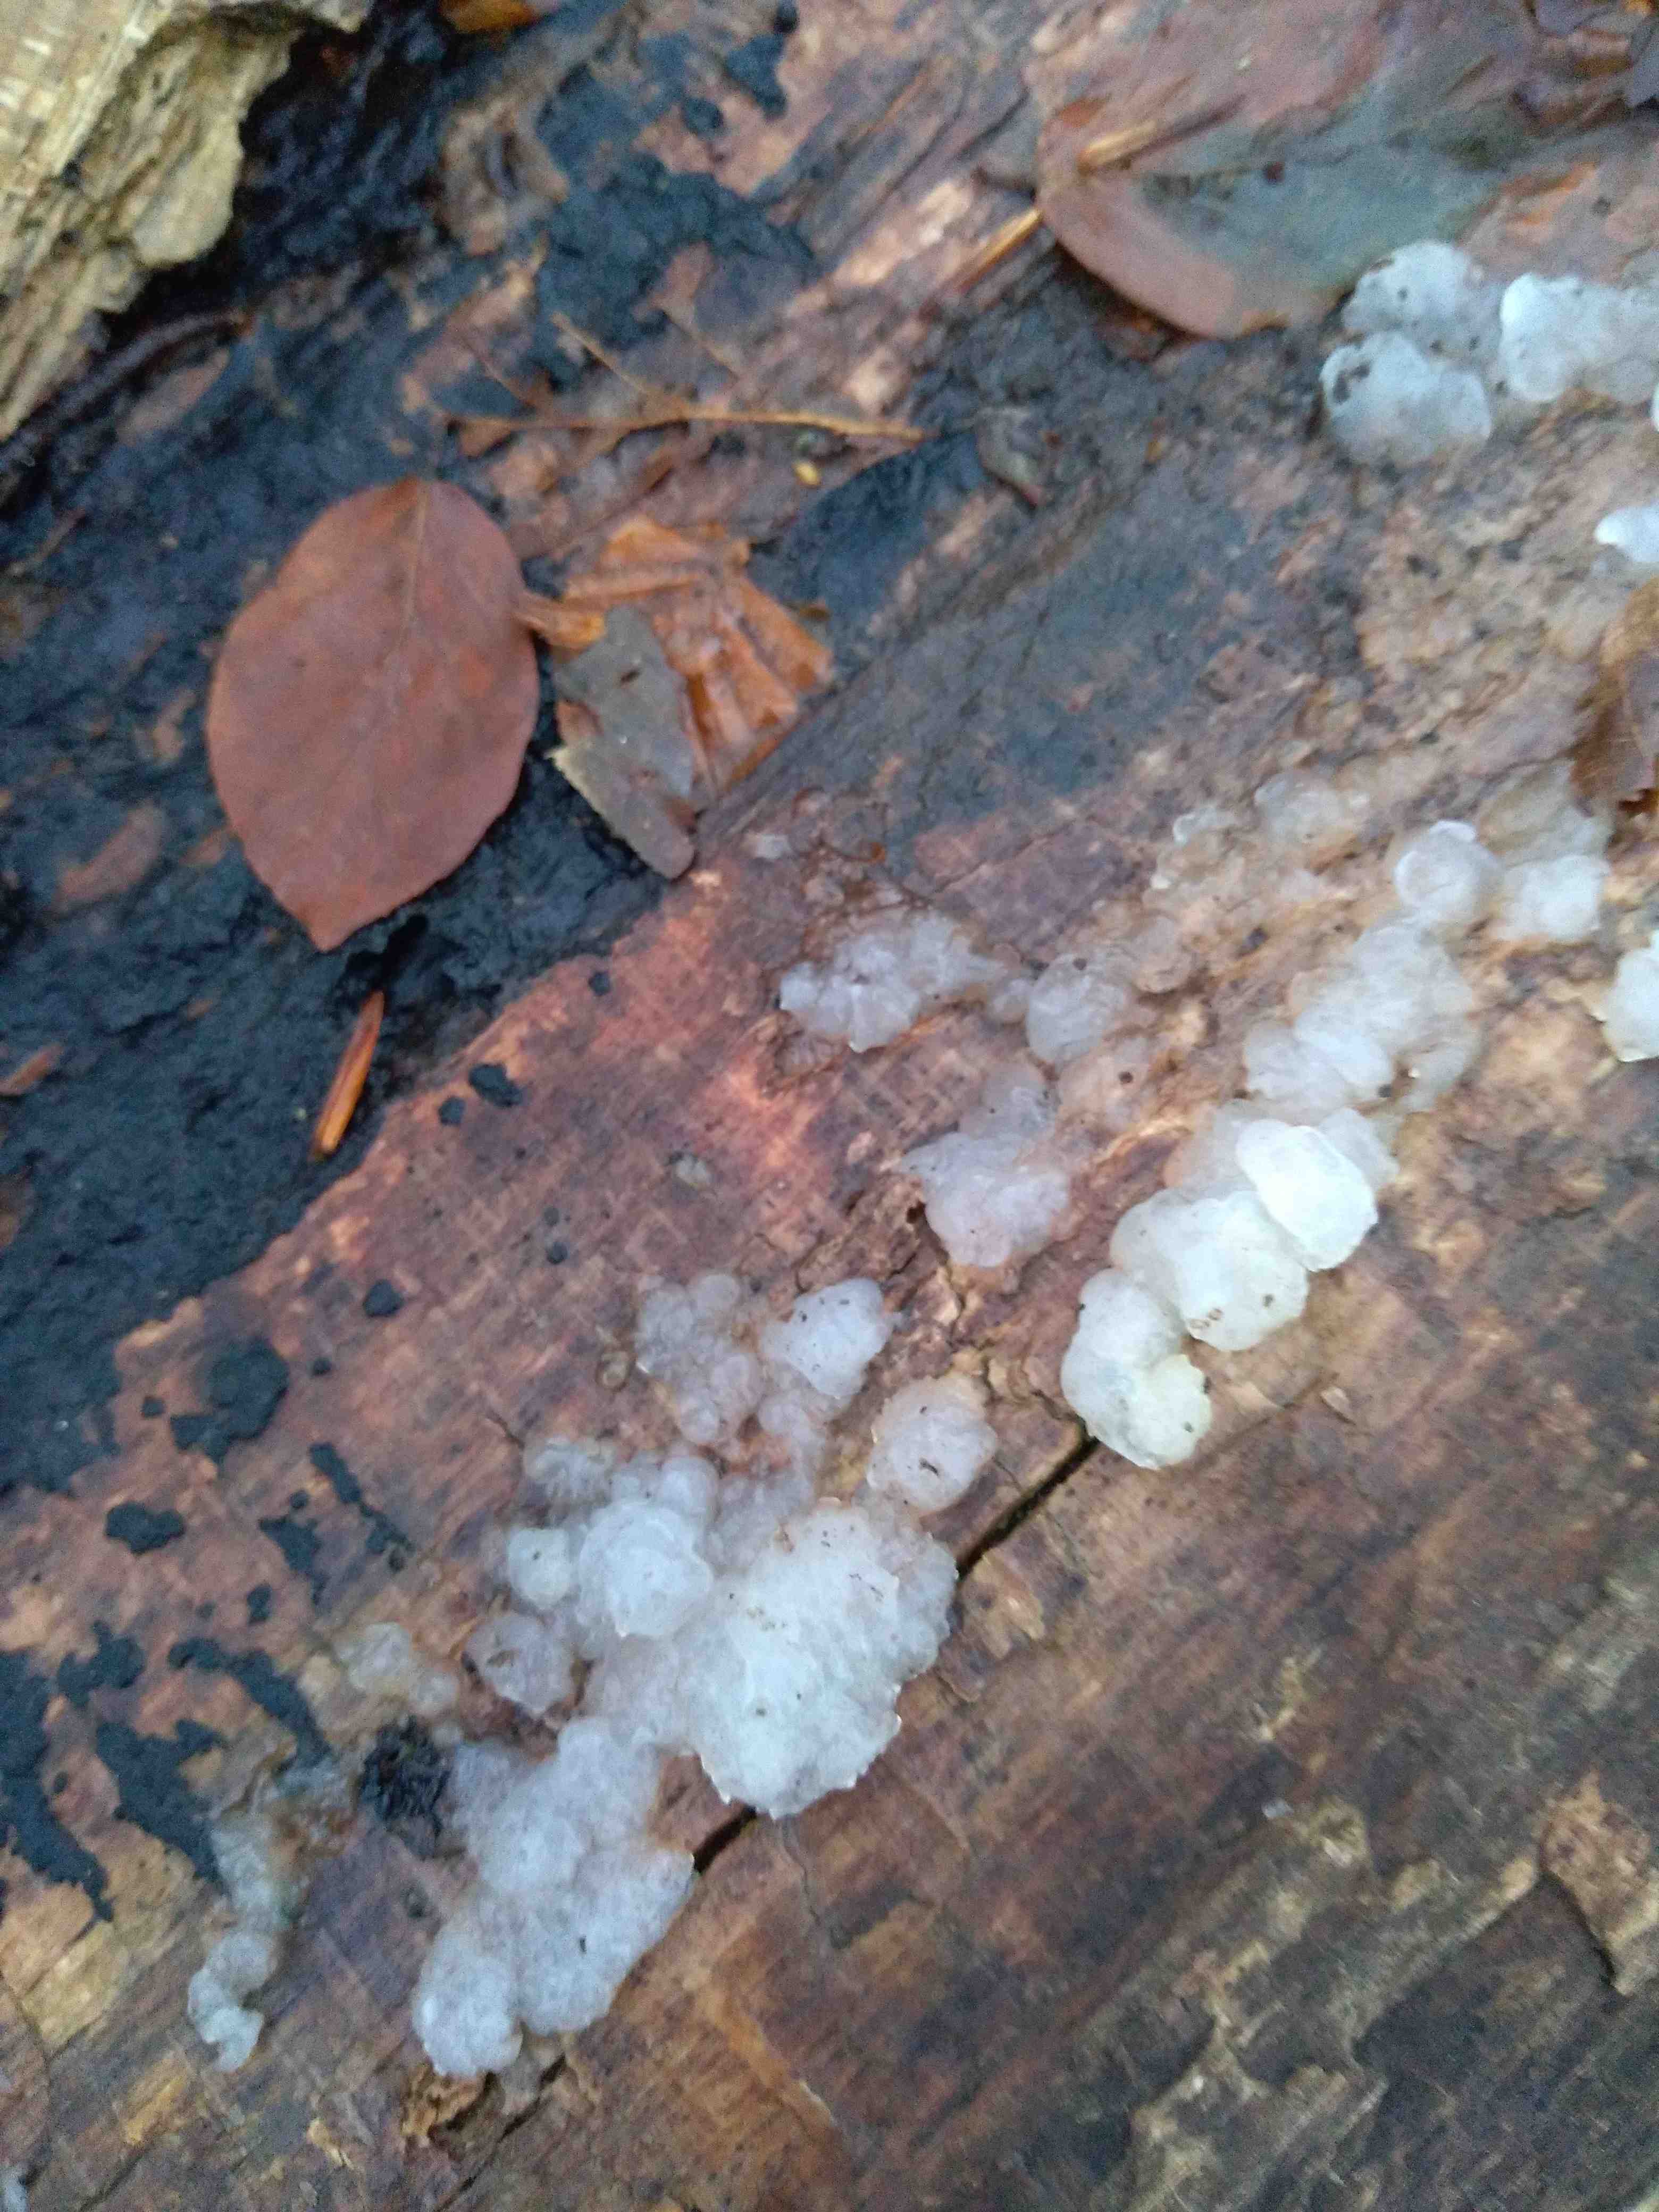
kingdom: Fungi
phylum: Basidiomycota
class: Agaricomycetes
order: Auriculariales
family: Hyaloriaceae
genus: Myxarium
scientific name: Myxarium nucleatum
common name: klar bævretop
